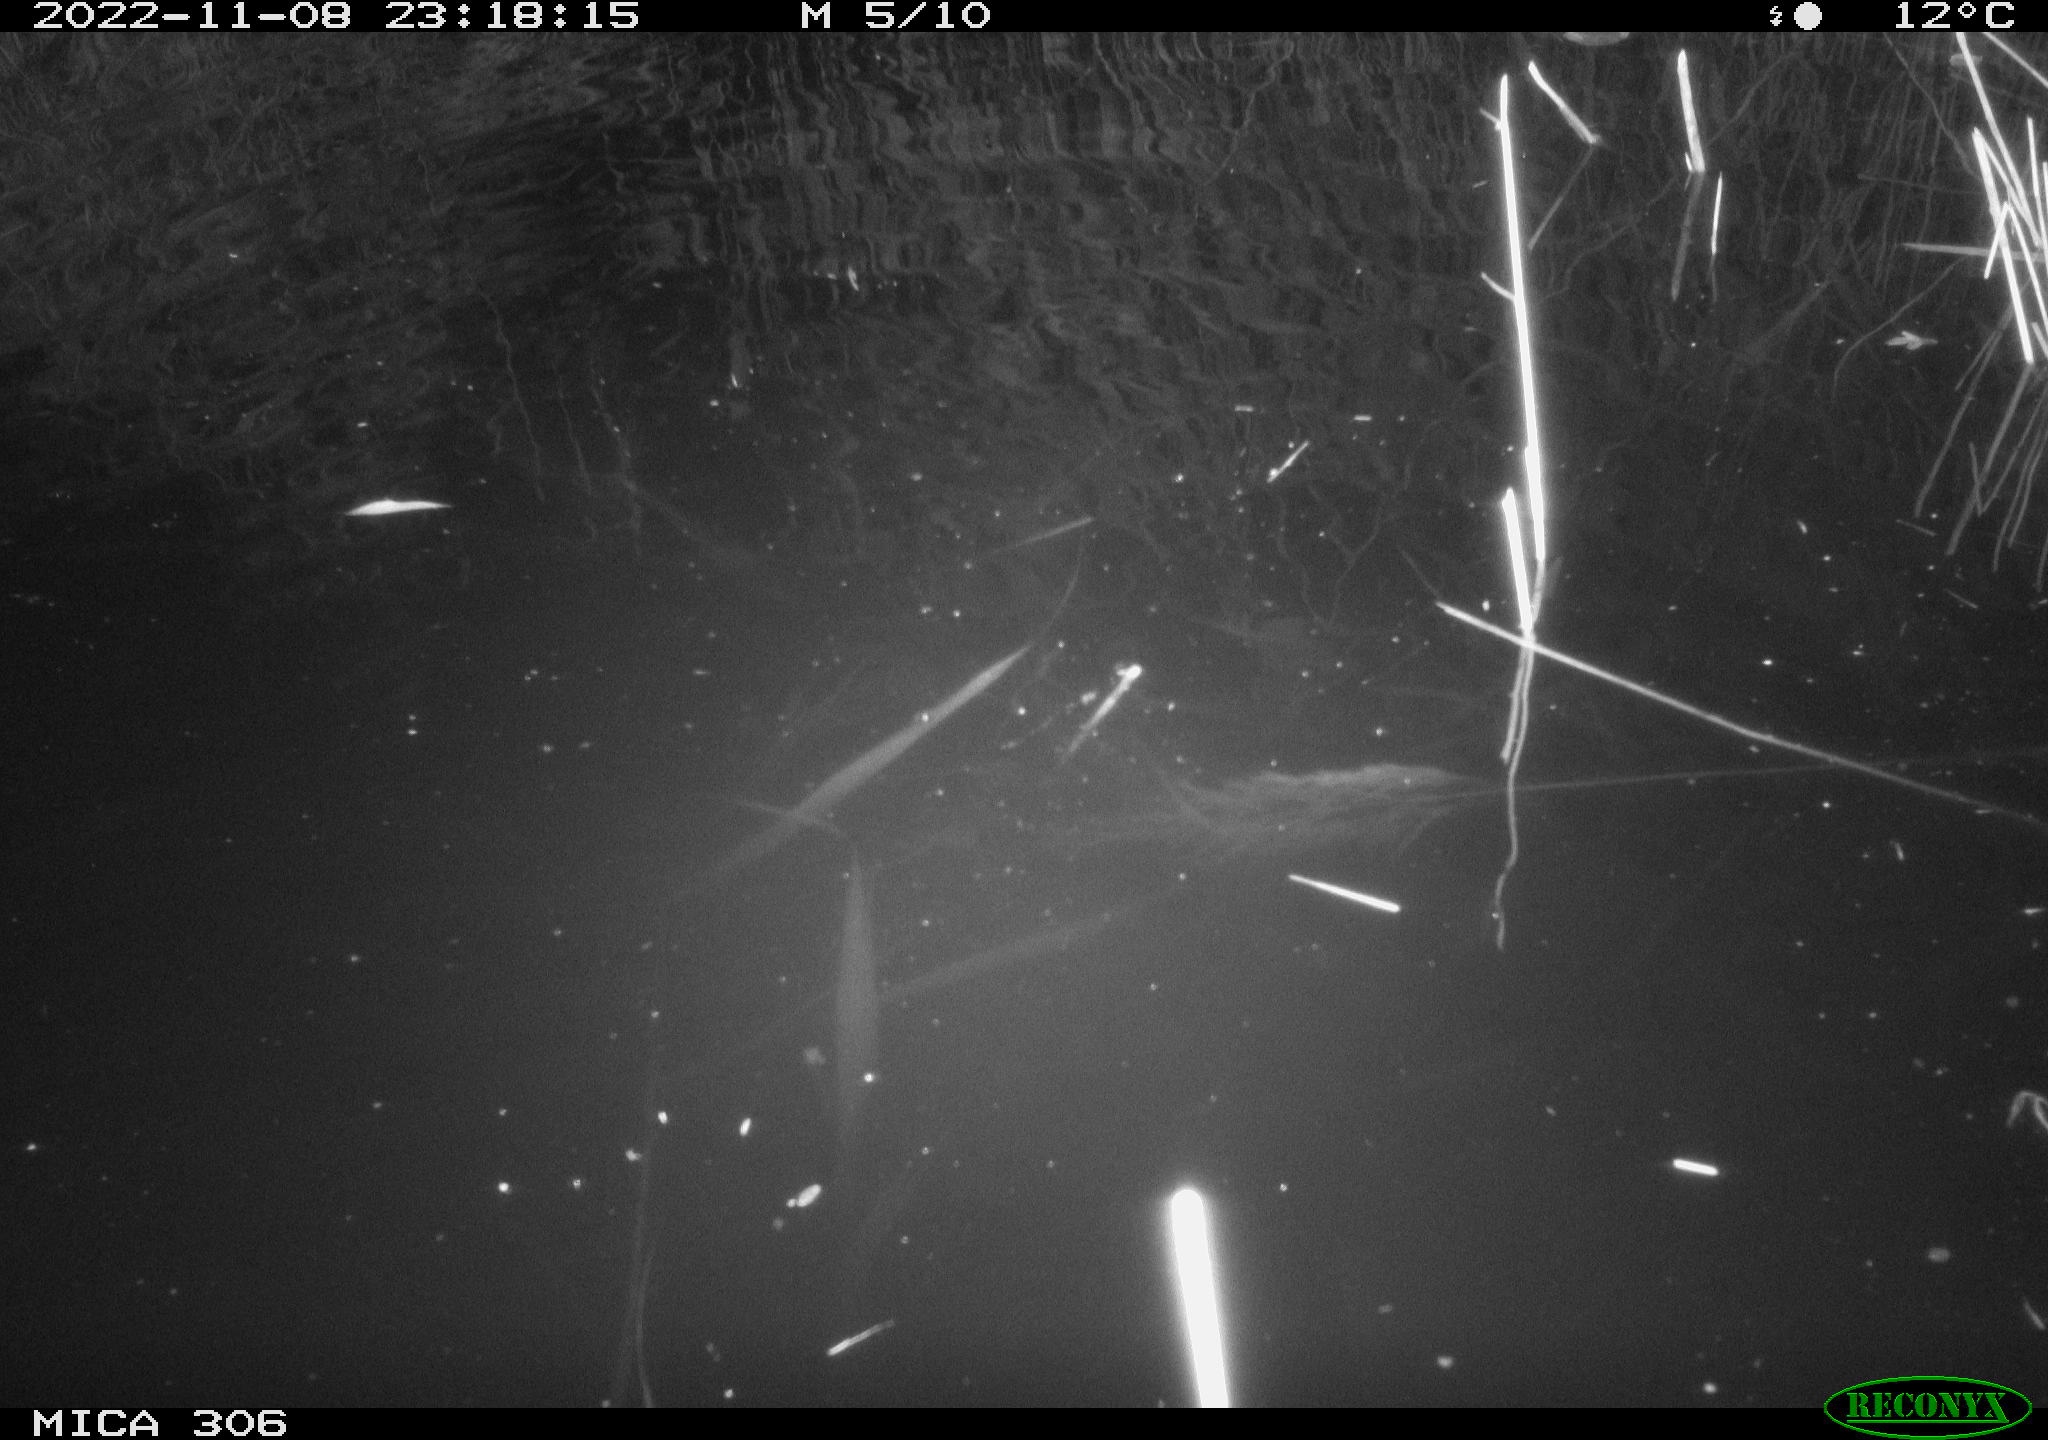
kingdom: Animalia
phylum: Chordata
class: Mammalia
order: Rodentia
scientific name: Rodentia
